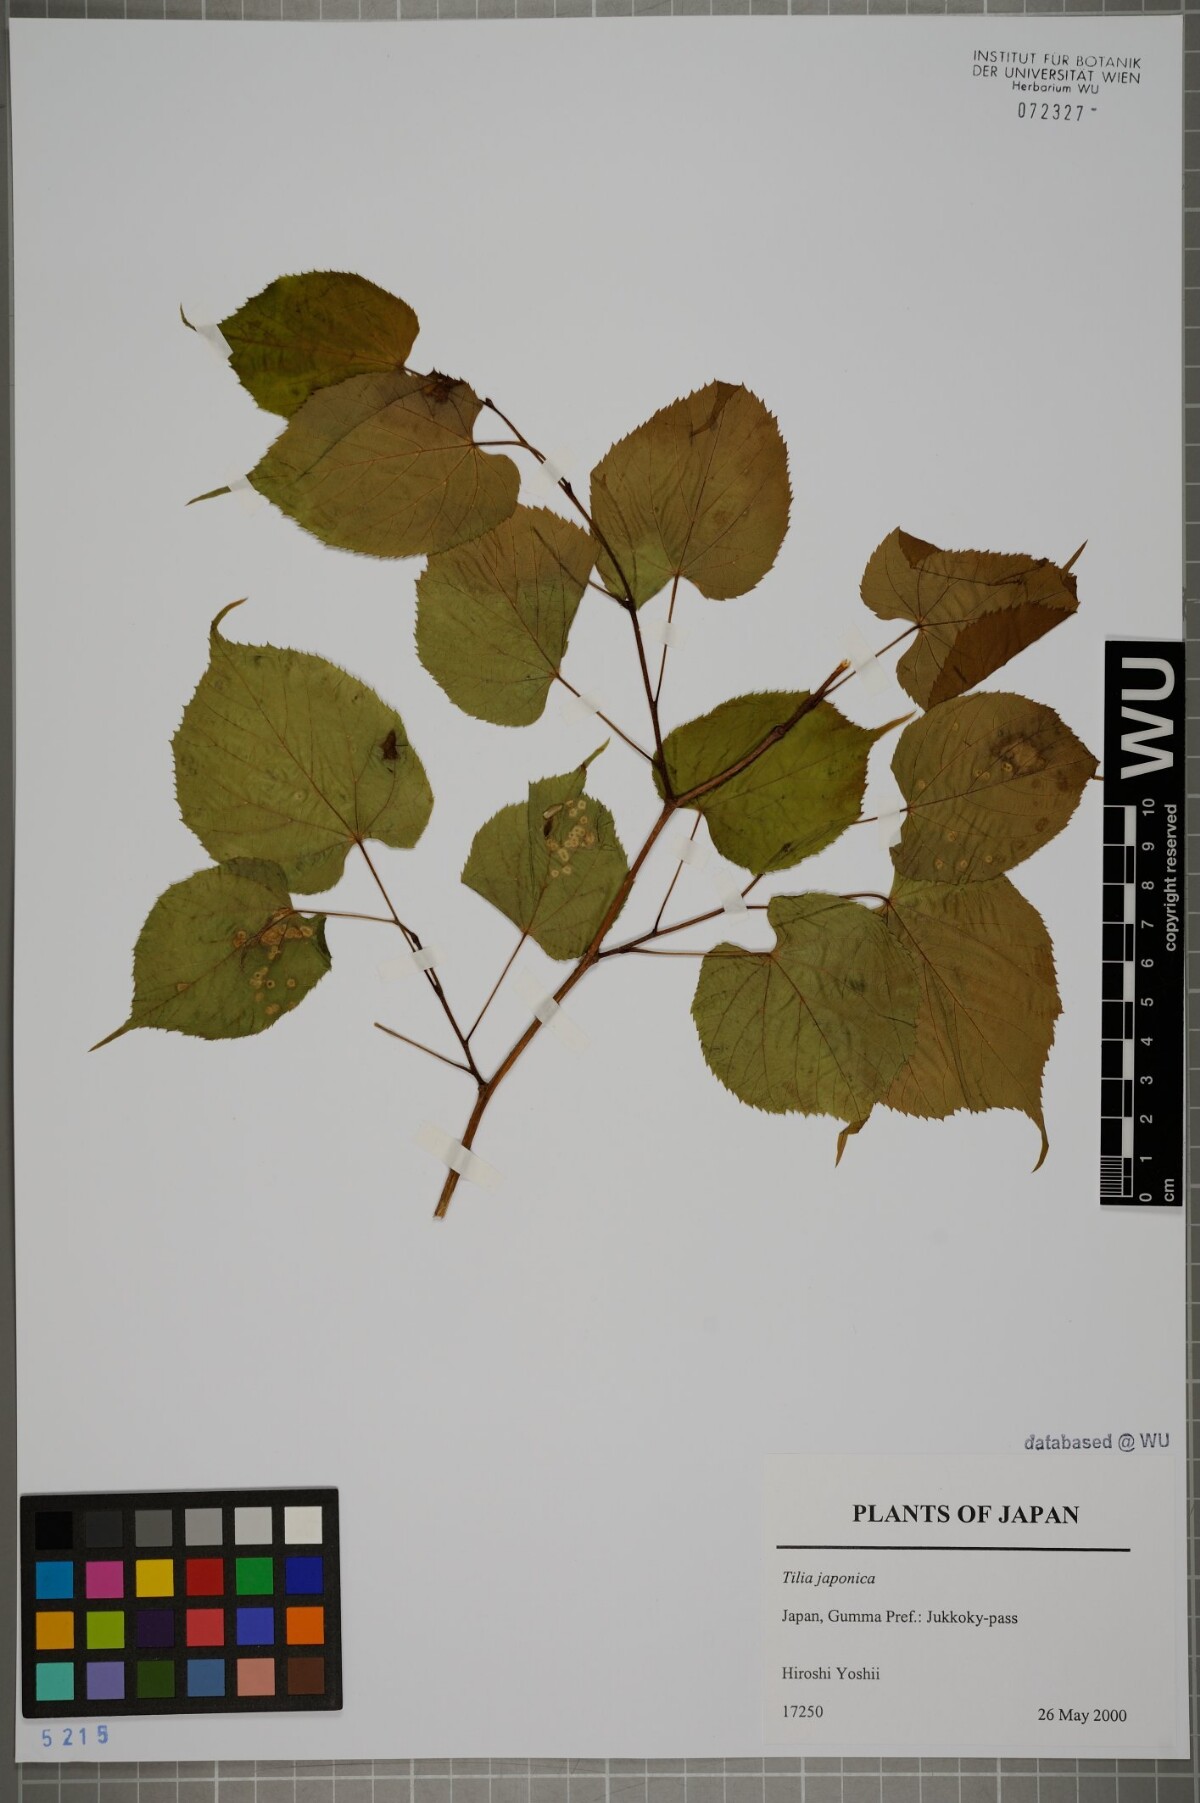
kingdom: Plantae
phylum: Tracheophyta
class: Magnoliopsida
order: Malvales
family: Malvaceae
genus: Tilia
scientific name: Tilia japonica
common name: Japanese lime
